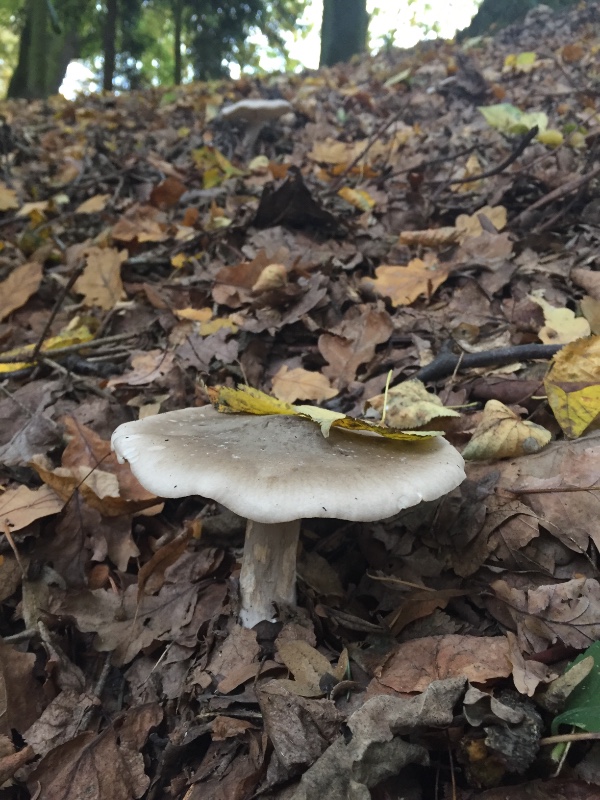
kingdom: Fungi
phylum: Basidiomycota
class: Agaricomycetes
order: Agaricales
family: Tricholomataceae
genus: Clitocybe
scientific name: Clitocybe nebularis
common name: tåge-tragthat
